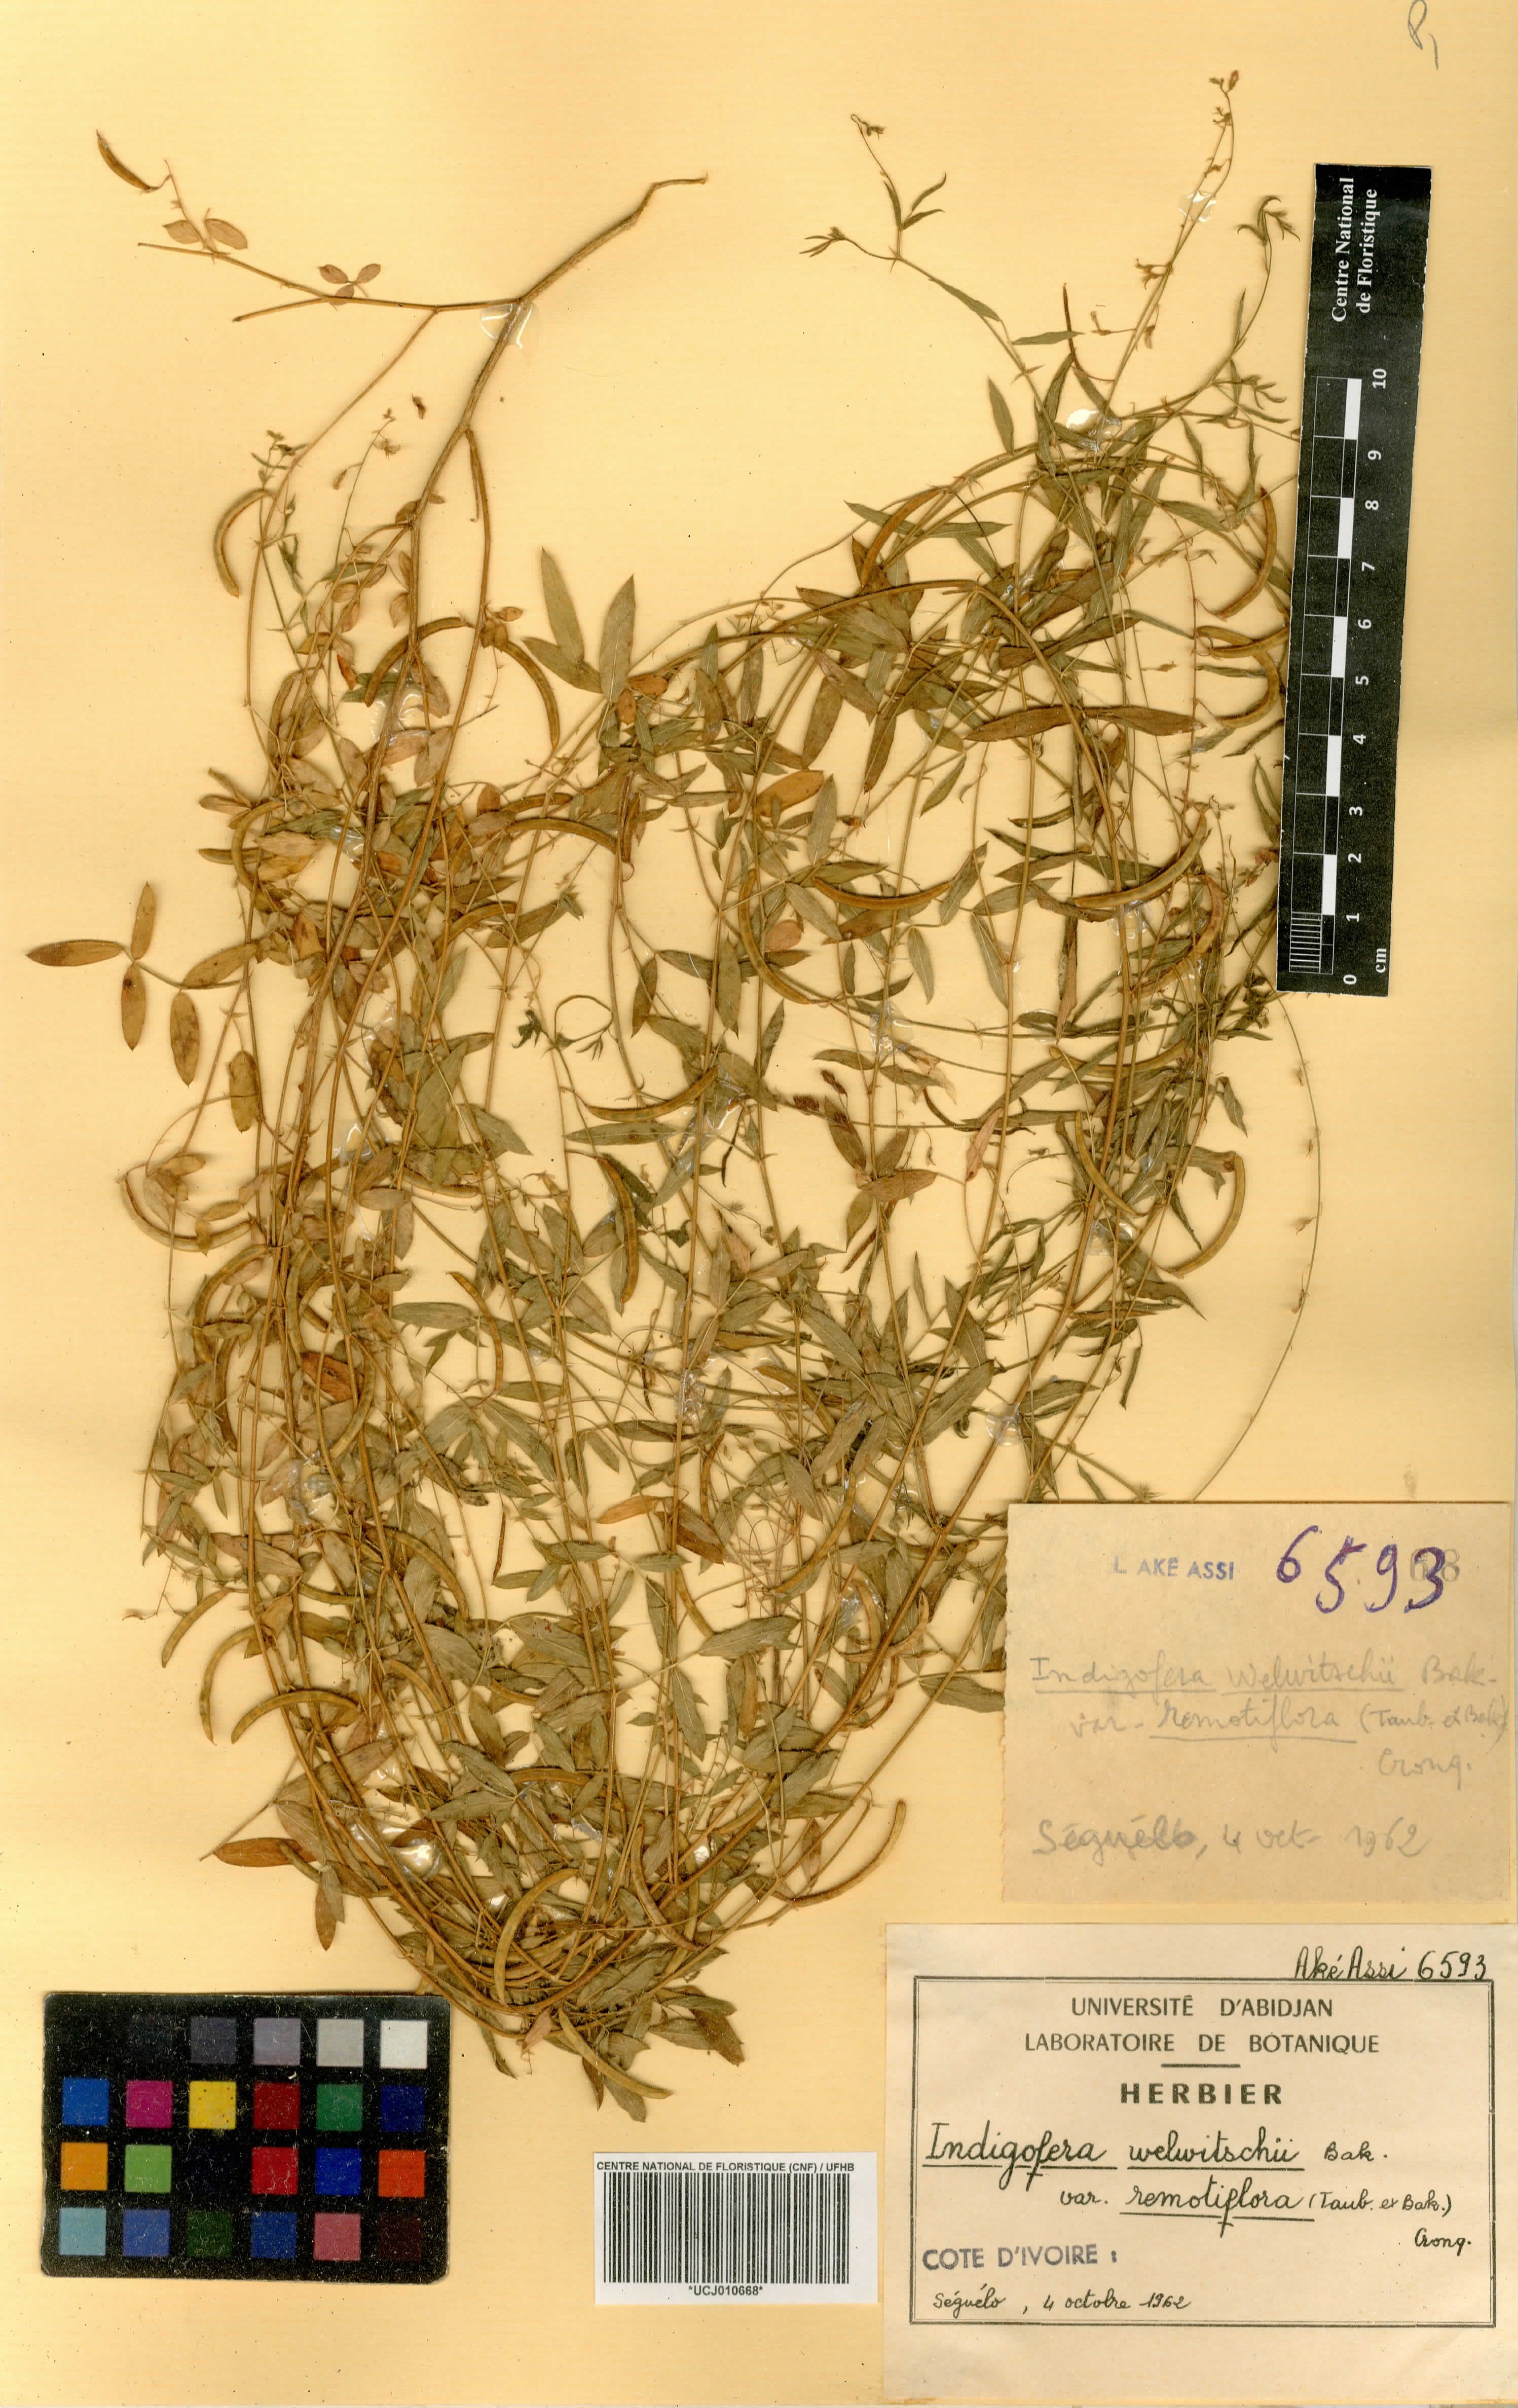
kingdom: Plantae
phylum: Tracheophyta
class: Magnoliopsida
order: Fabales
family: Fabaceae
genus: Indigofera
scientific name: Indigofera welwitschii
